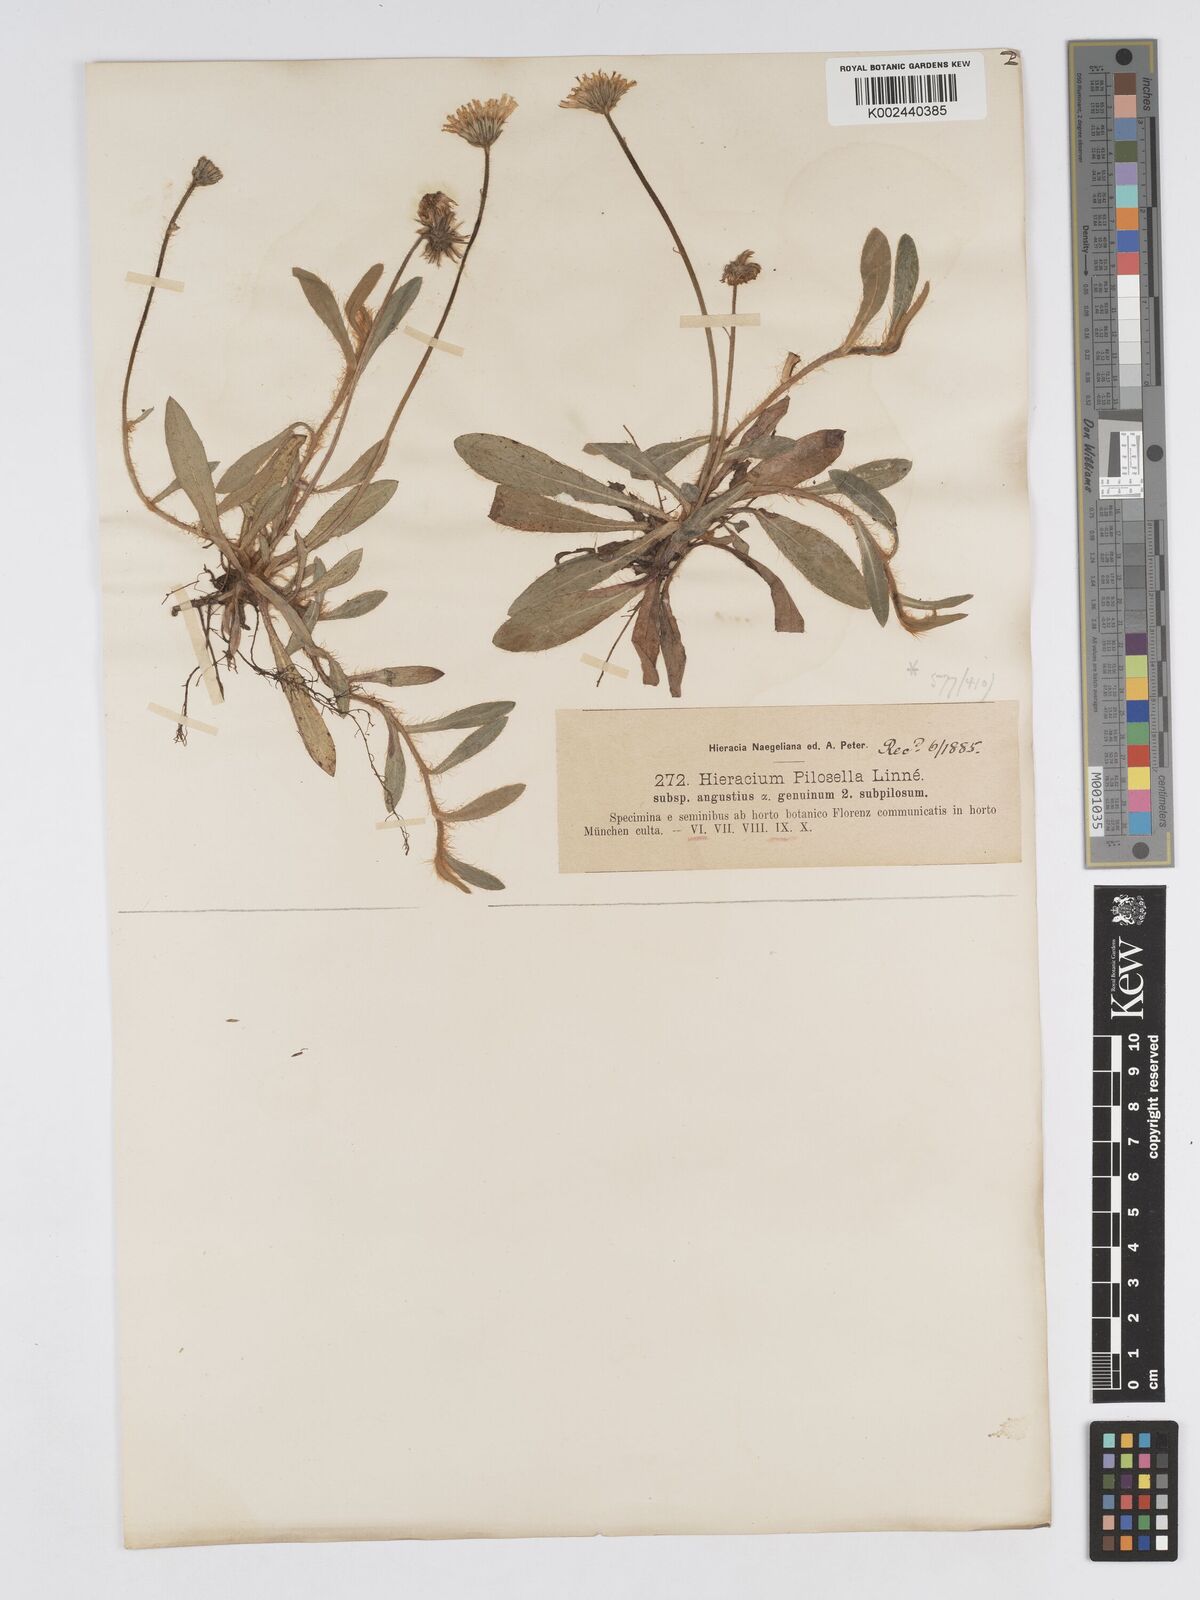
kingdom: Plantae
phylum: Tracheophyta
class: Magnoliopsida
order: Asterales
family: Asteraceae
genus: Pilosella
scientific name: Pilosella officinarum
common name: Mouse-ear hawkweed
